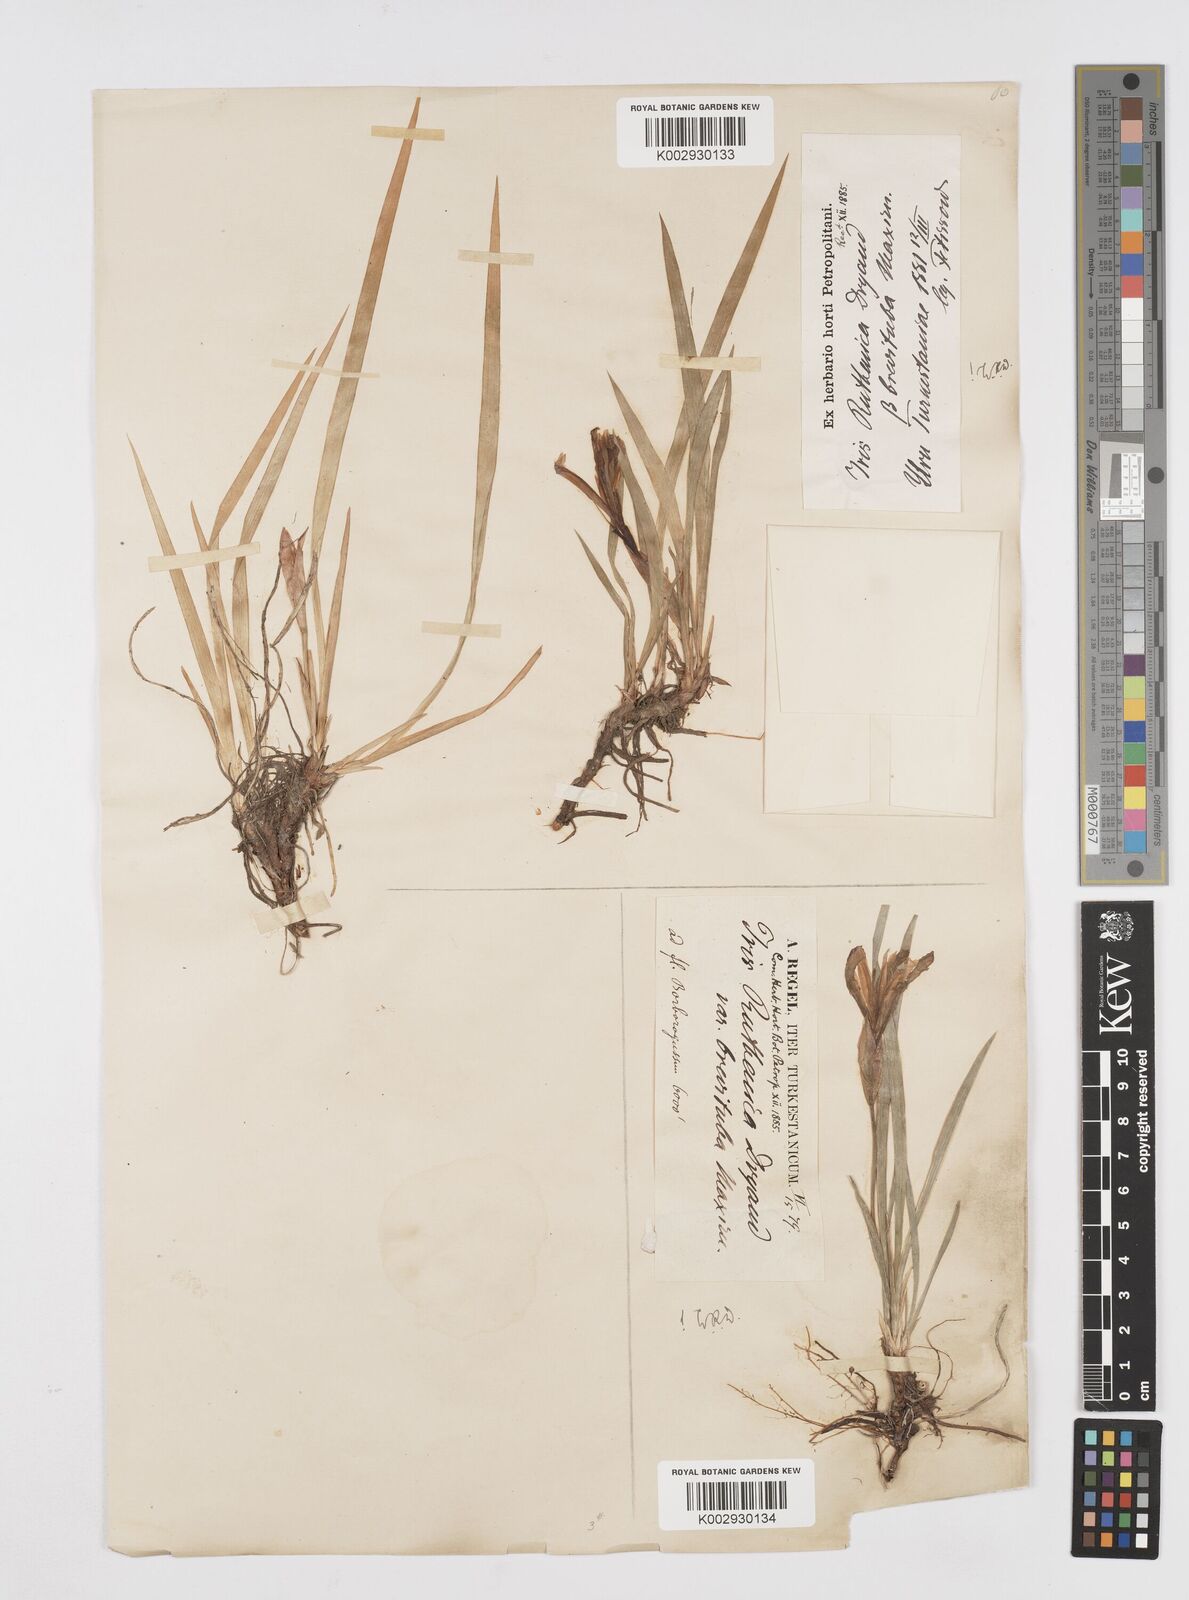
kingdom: Plantae
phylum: Tracheophyta
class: Liliopsida
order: Asparagales
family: Iridaceae
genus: Iris
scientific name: Iris ruthenica
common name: Purple-bract iris
